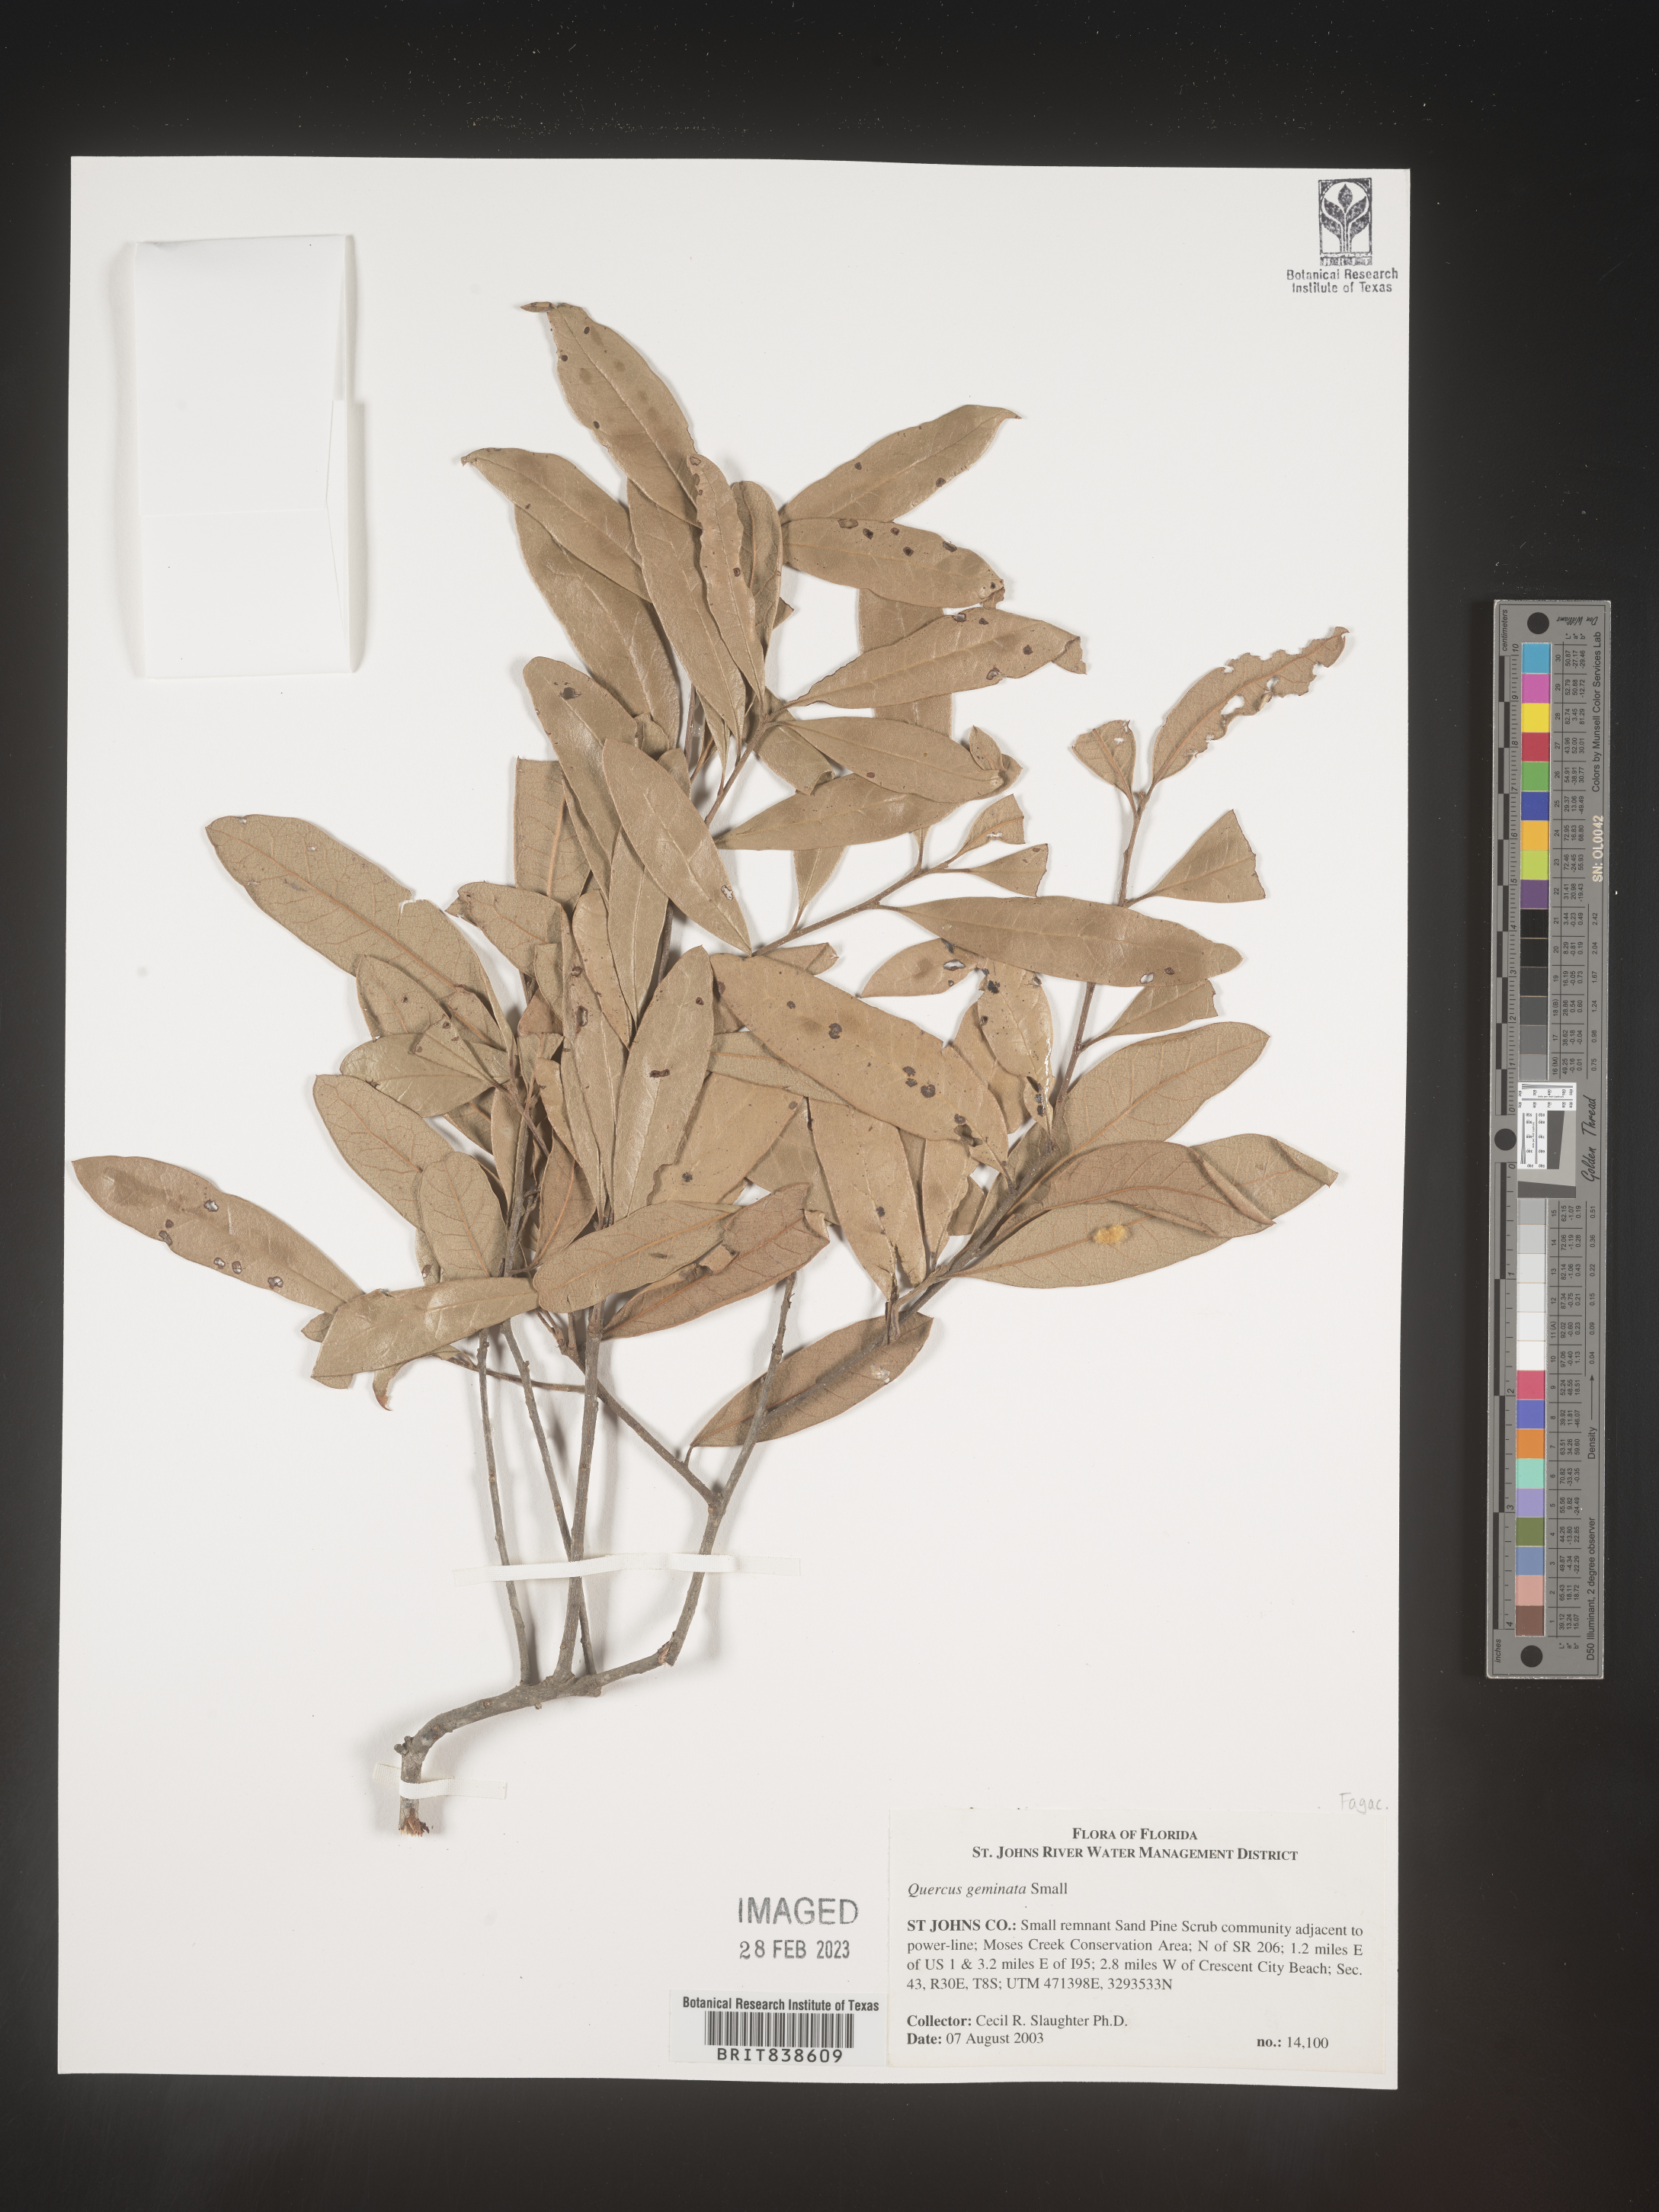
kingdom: Plantae
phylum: Tracheophyta
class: Magnoliopsida
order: Fagales
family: Fagaceae
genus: Quercus
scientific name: Quercus geminata
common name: Sand live oak
